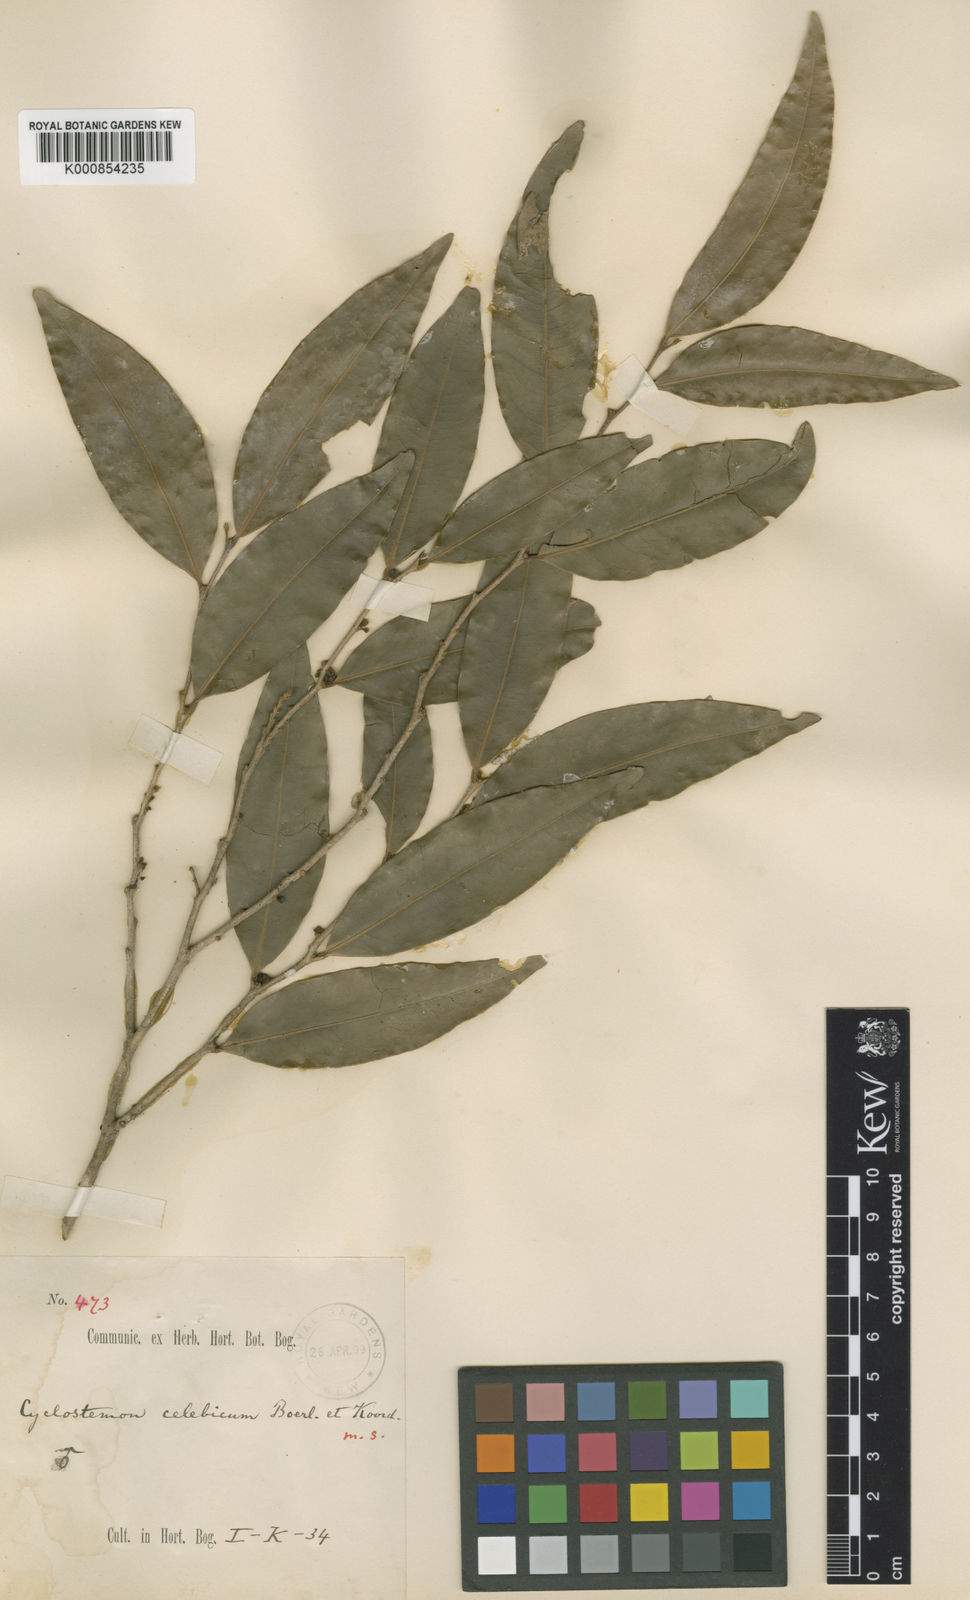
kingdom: Plantae
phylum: Tracheophyta
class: Magnoliopsida
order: Malpighiales
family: Putranjivaceae
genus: Drypetes
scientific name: Drypetes celebica
